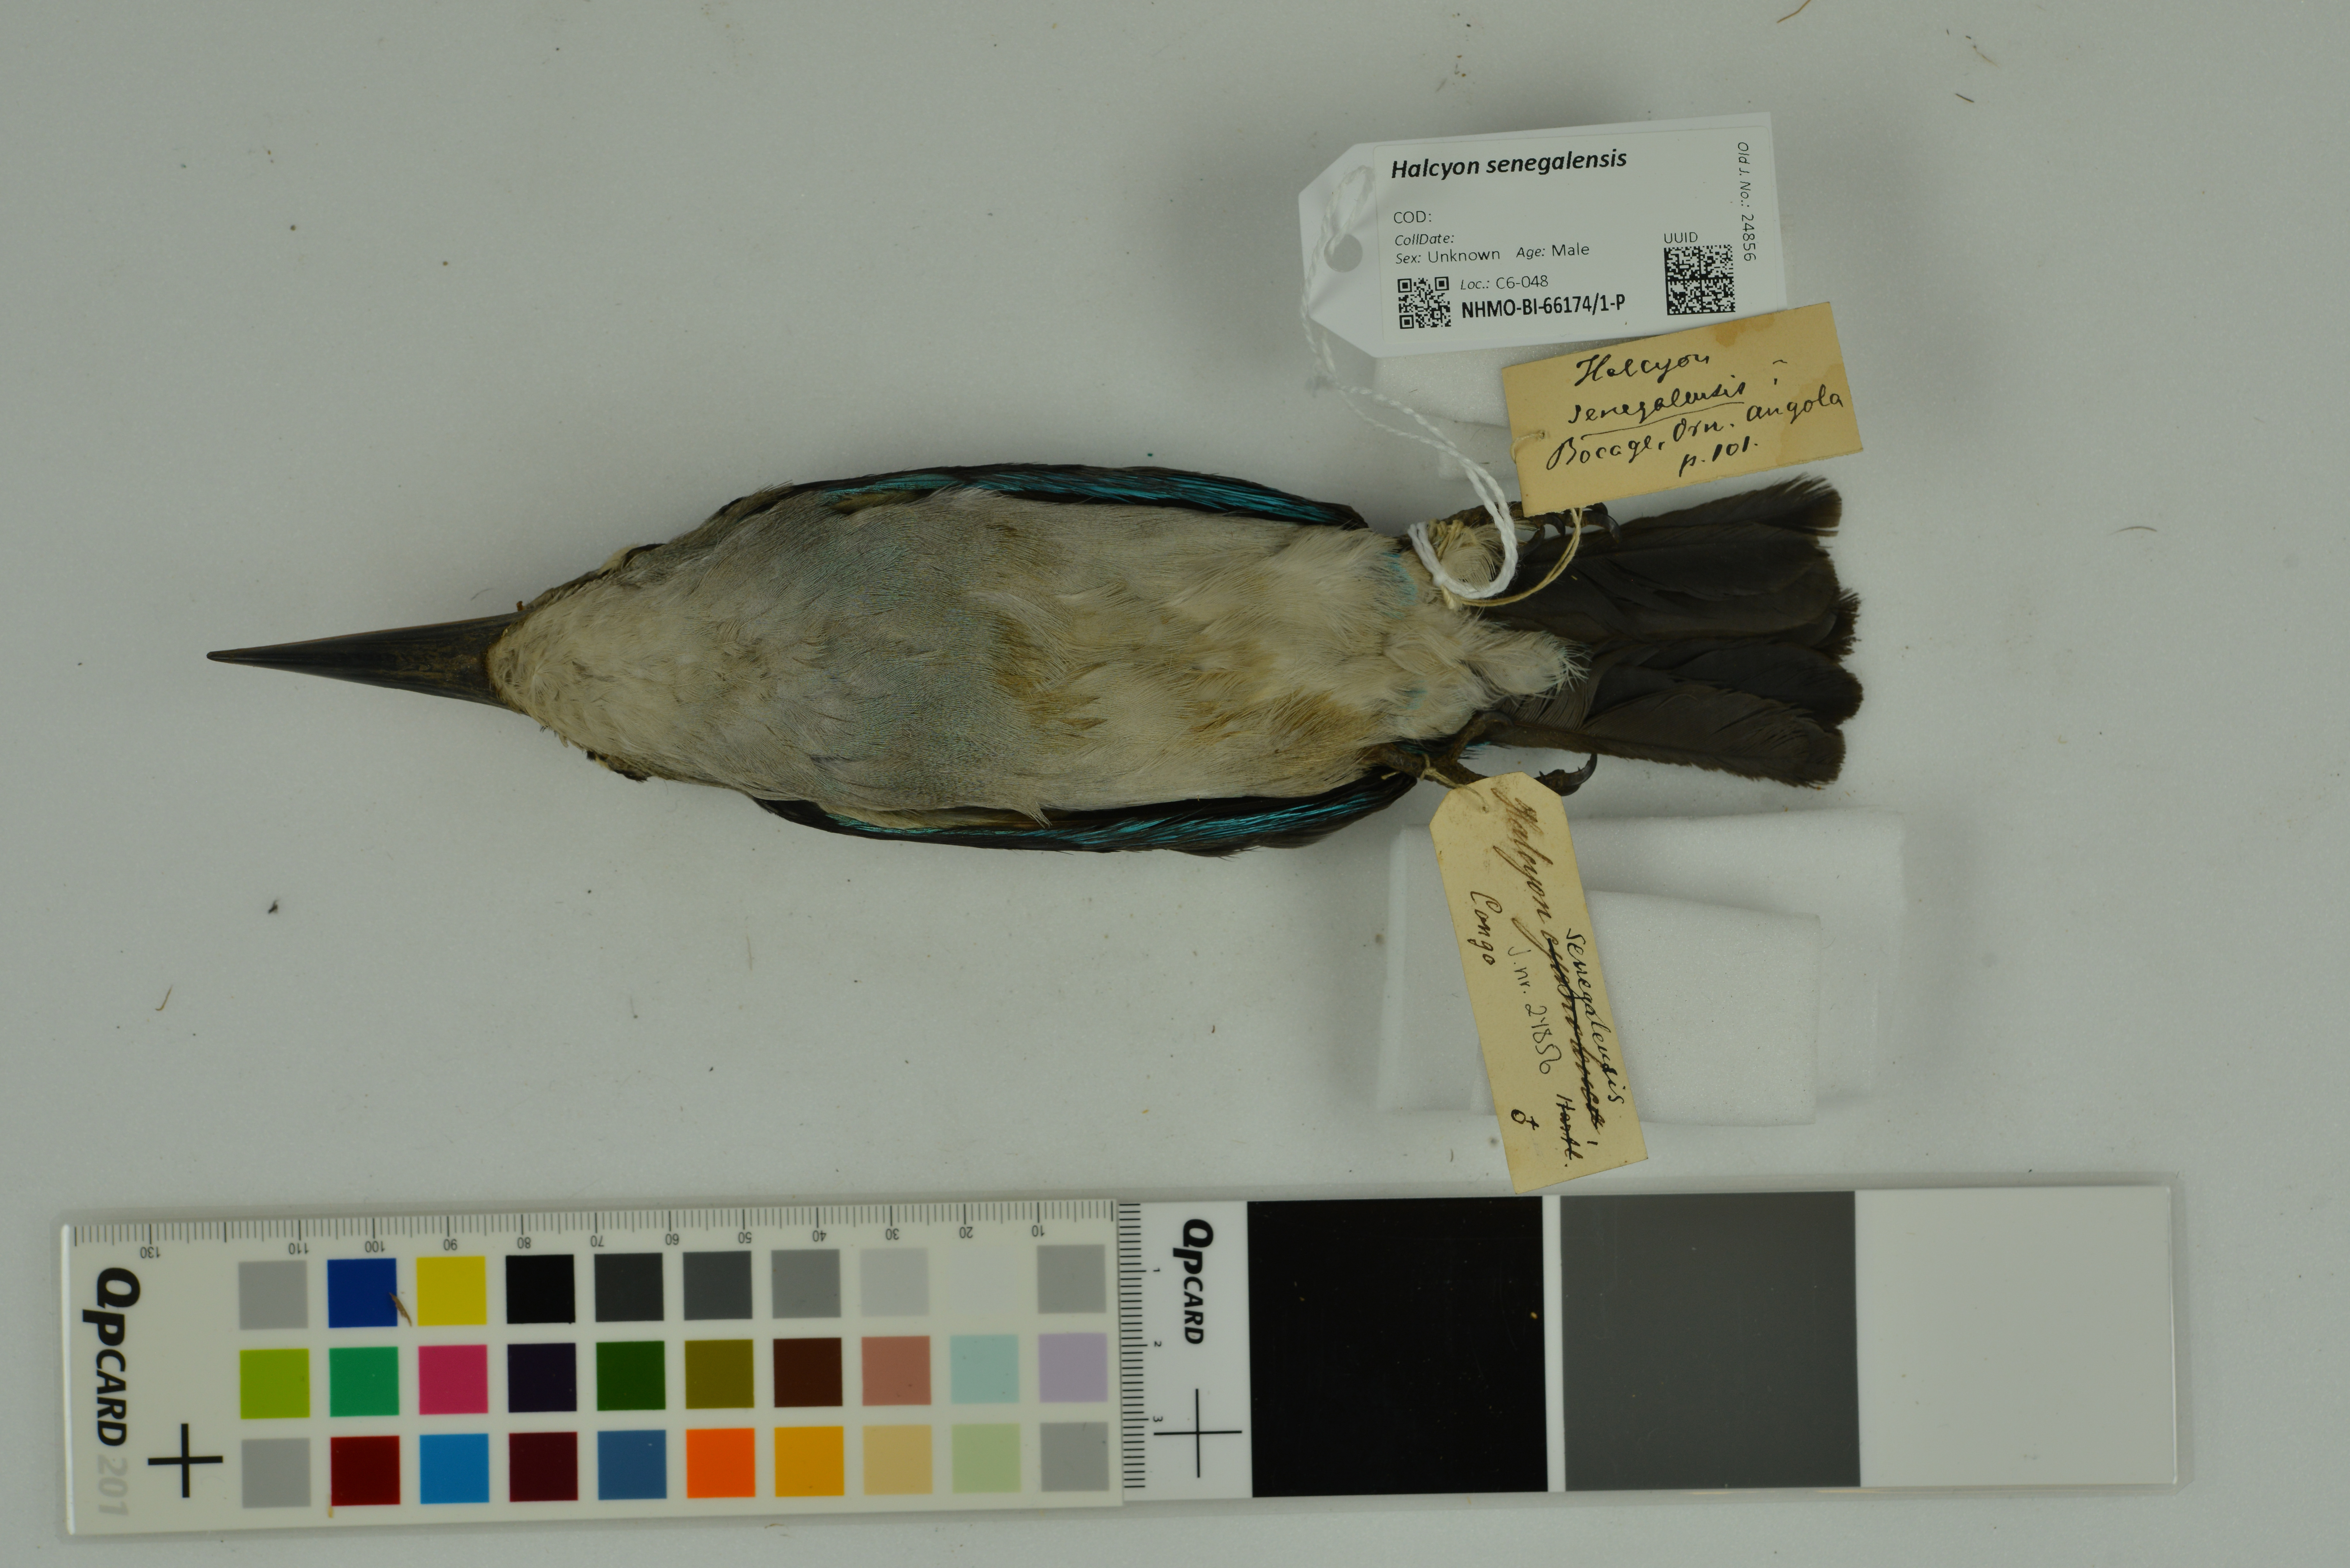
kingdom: Animalia
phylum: Chordata
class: Aves
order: Coraciiformes
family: Alcedinidae
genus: Halcyon
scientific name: Halcyon senegalensis
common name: Woodland kingfisher
